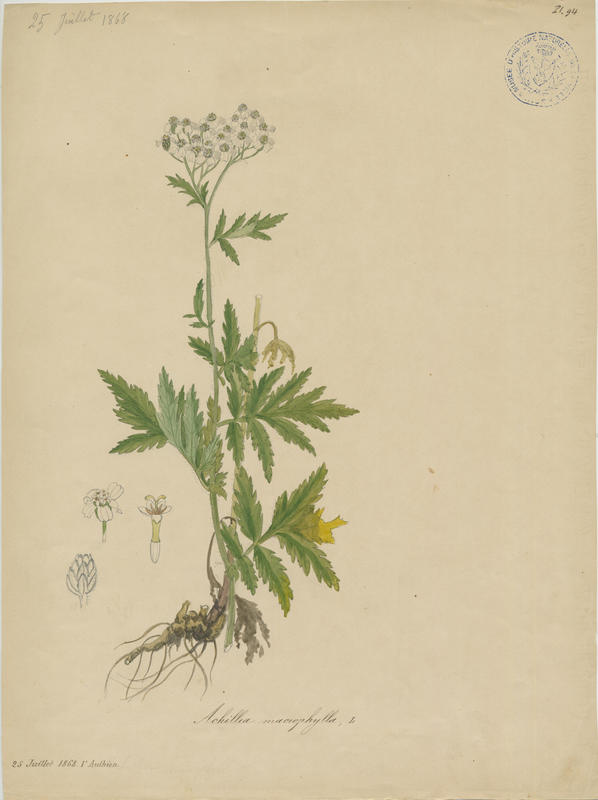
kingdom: Plantae
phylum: Tracheophyta
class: Magnoliopsida
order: Asterales
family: Asteraceae
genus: Achillea
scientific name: Achillea macrophylla
